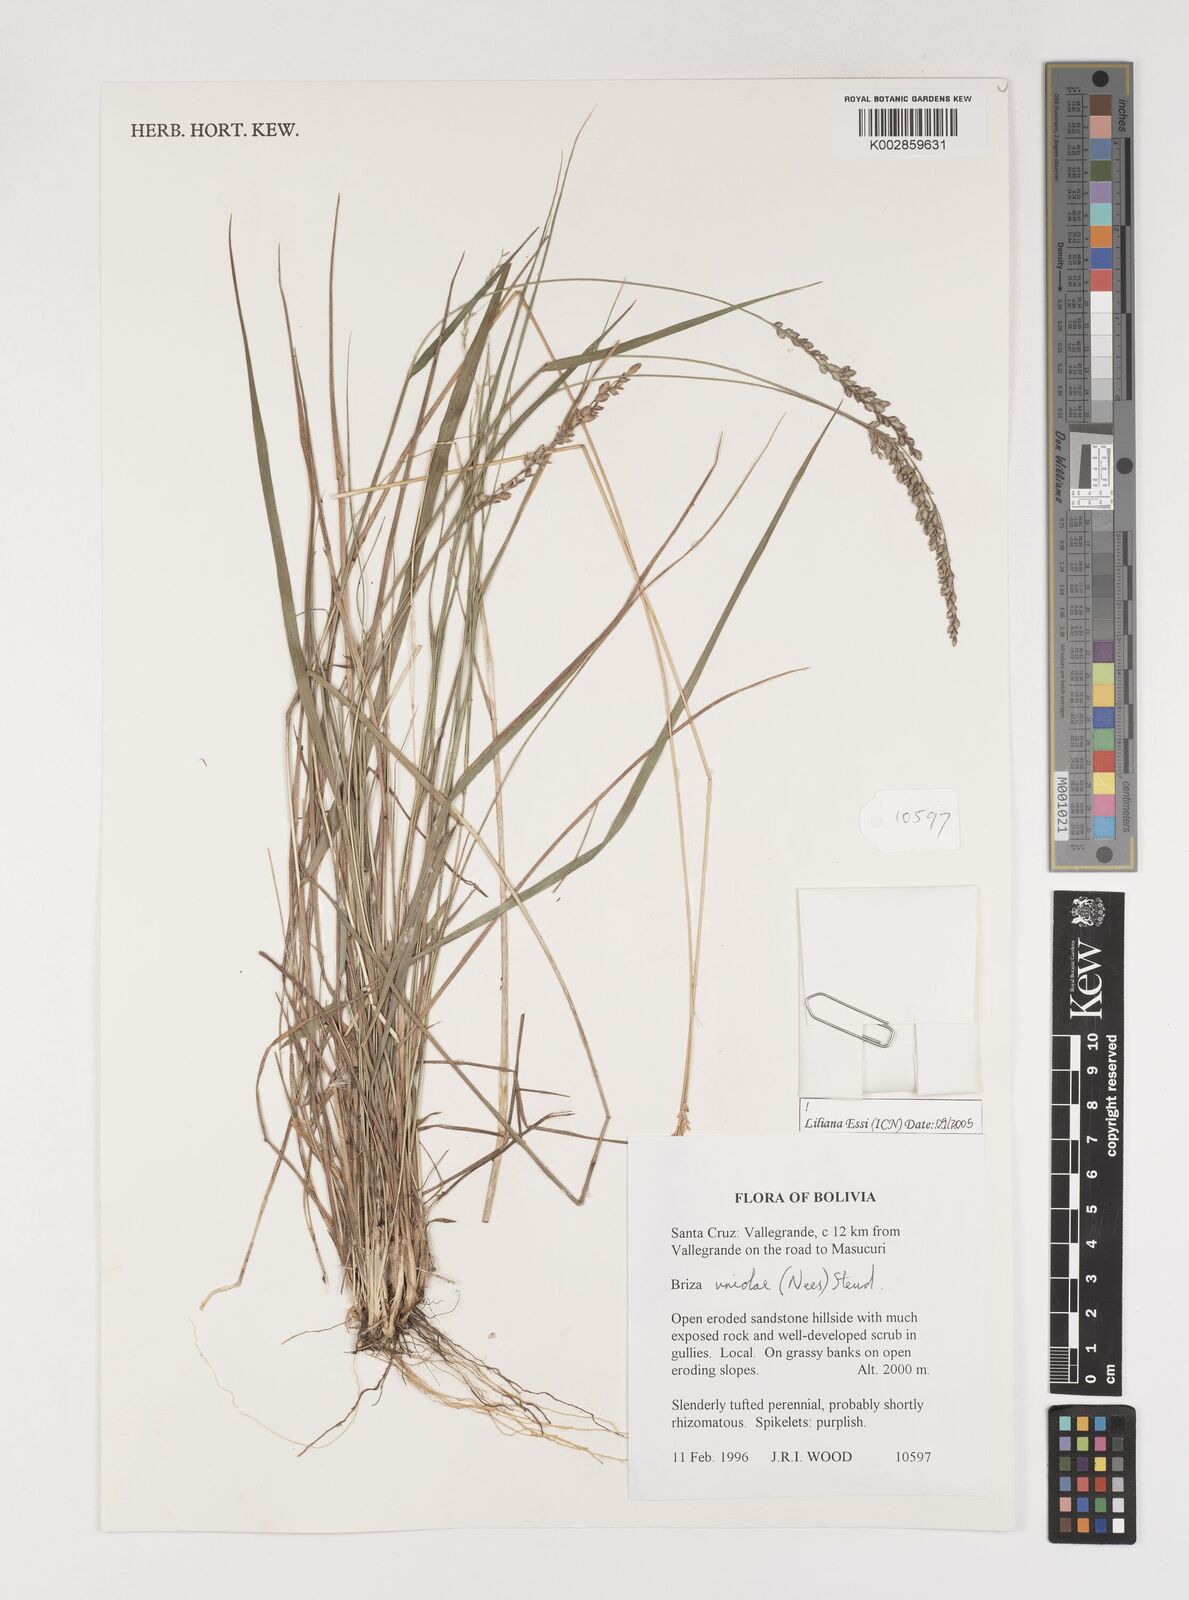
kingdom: Plantae
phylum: Tracheophyta
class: Liliopsida
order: Poales
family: Poaceae
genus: Poidium
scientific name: Poidium uniolae
